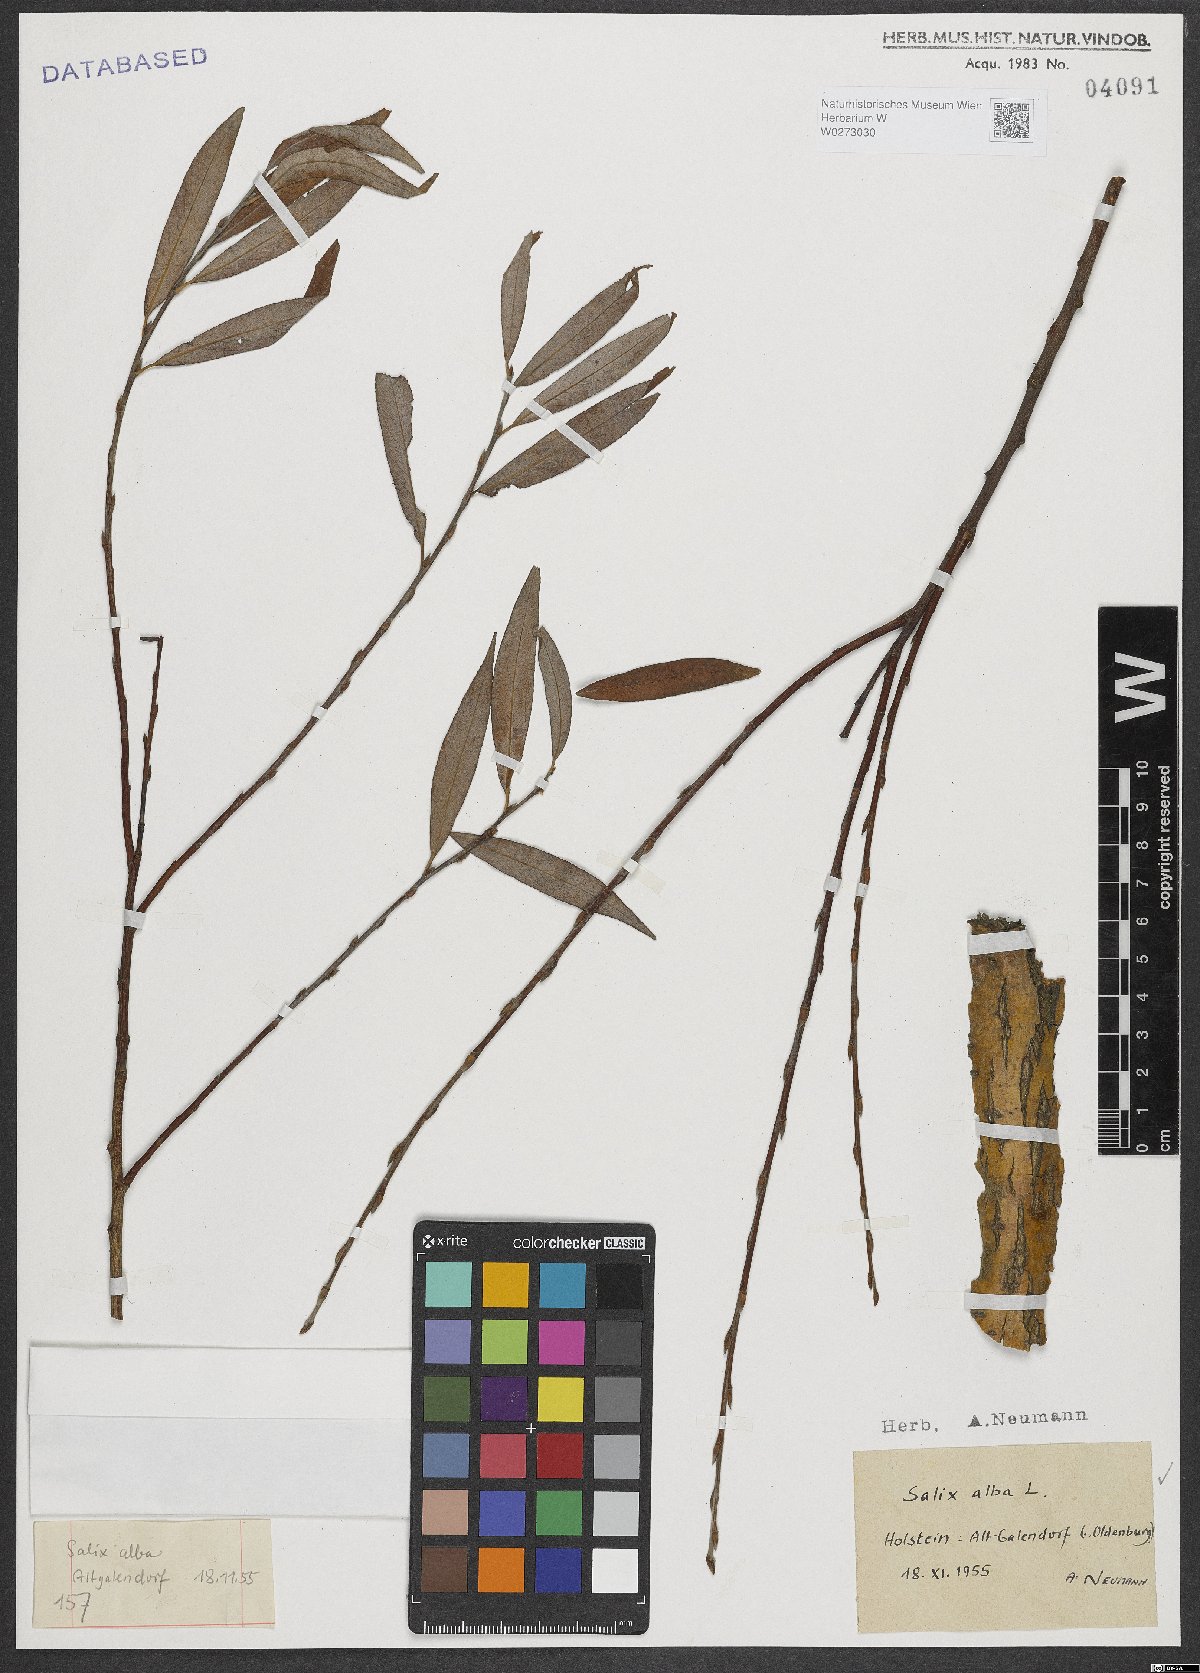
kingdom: Plantae
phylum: Tracheophyta
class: Magnoliopsida
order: Malpighiales
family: Salicaceae
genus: Salix
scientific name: Salix alba
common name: White willow
